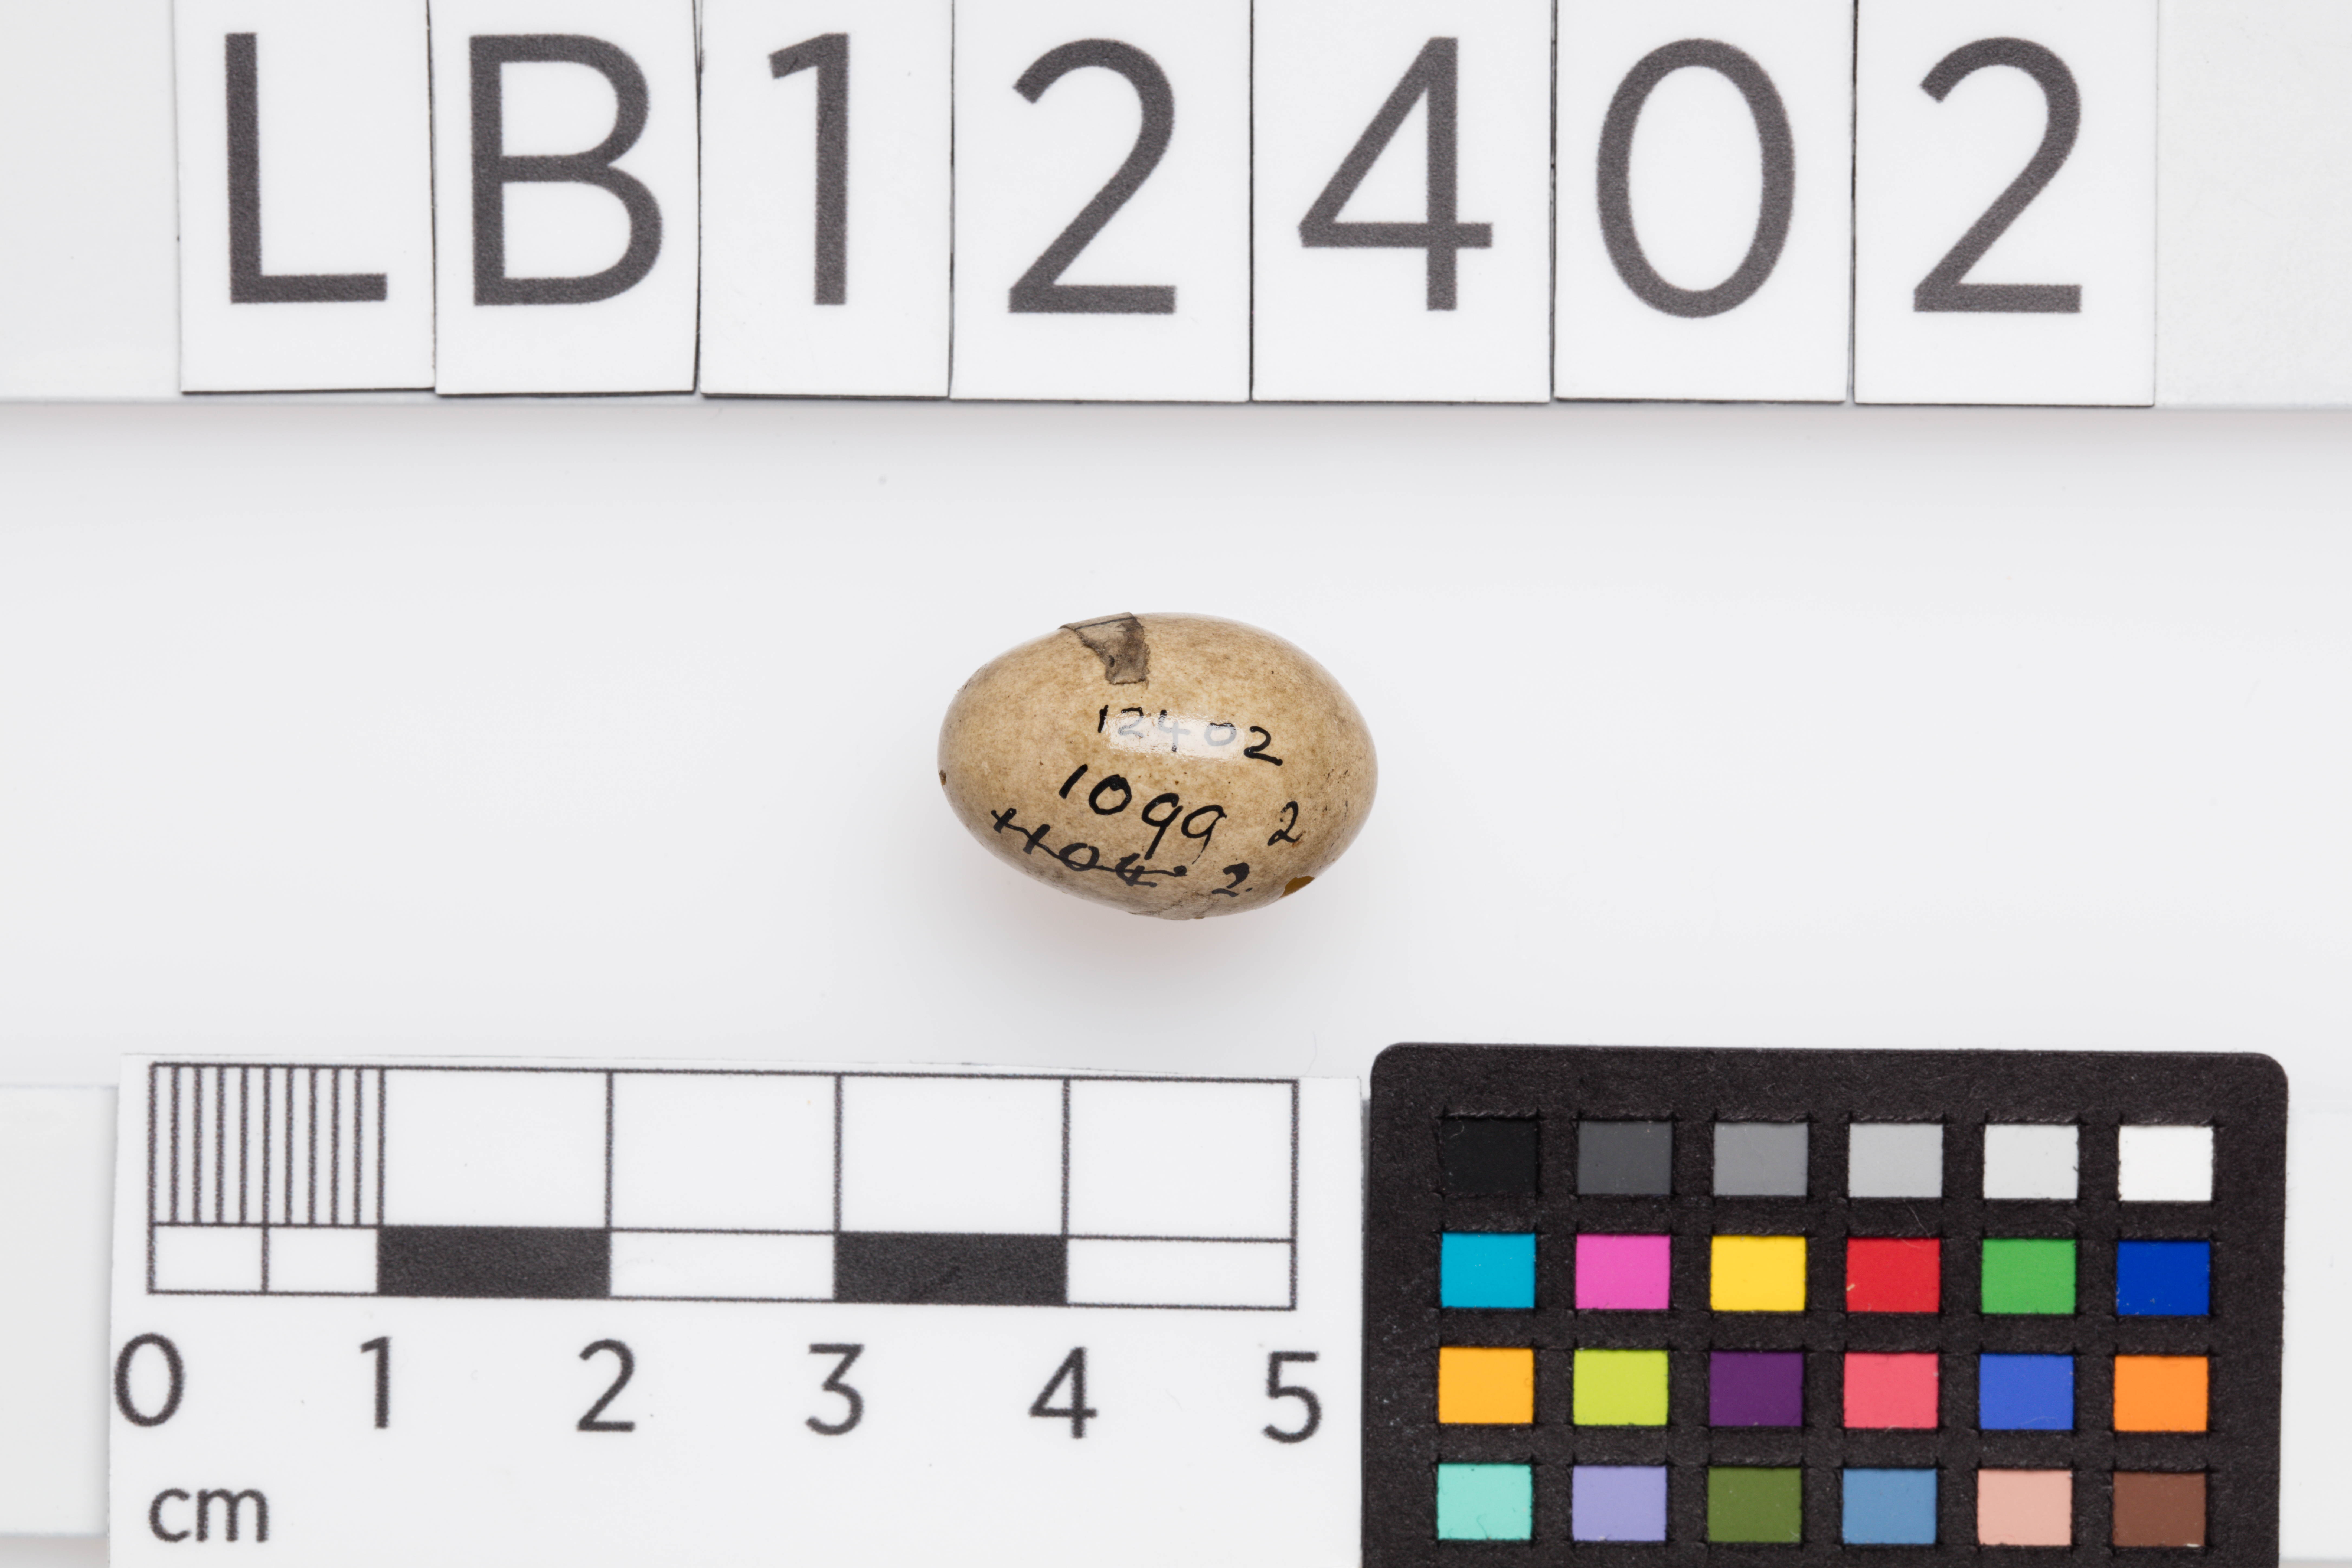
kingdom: Animalia
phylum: Chordata
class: Aves
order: Passeriformes
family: Acrocephalidae
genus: Acrocephalus
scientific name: Acrocephalus schoenobaenus
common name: Sedge warbler
